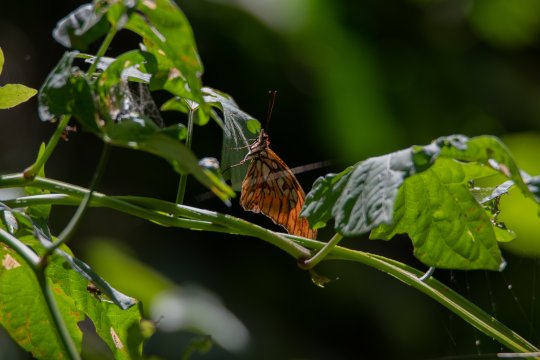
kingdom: Animalia
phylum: Arthropoda
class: Insecta
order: Lepidoptera
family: Nymphalidae
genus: Dione
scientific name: Dione juno
